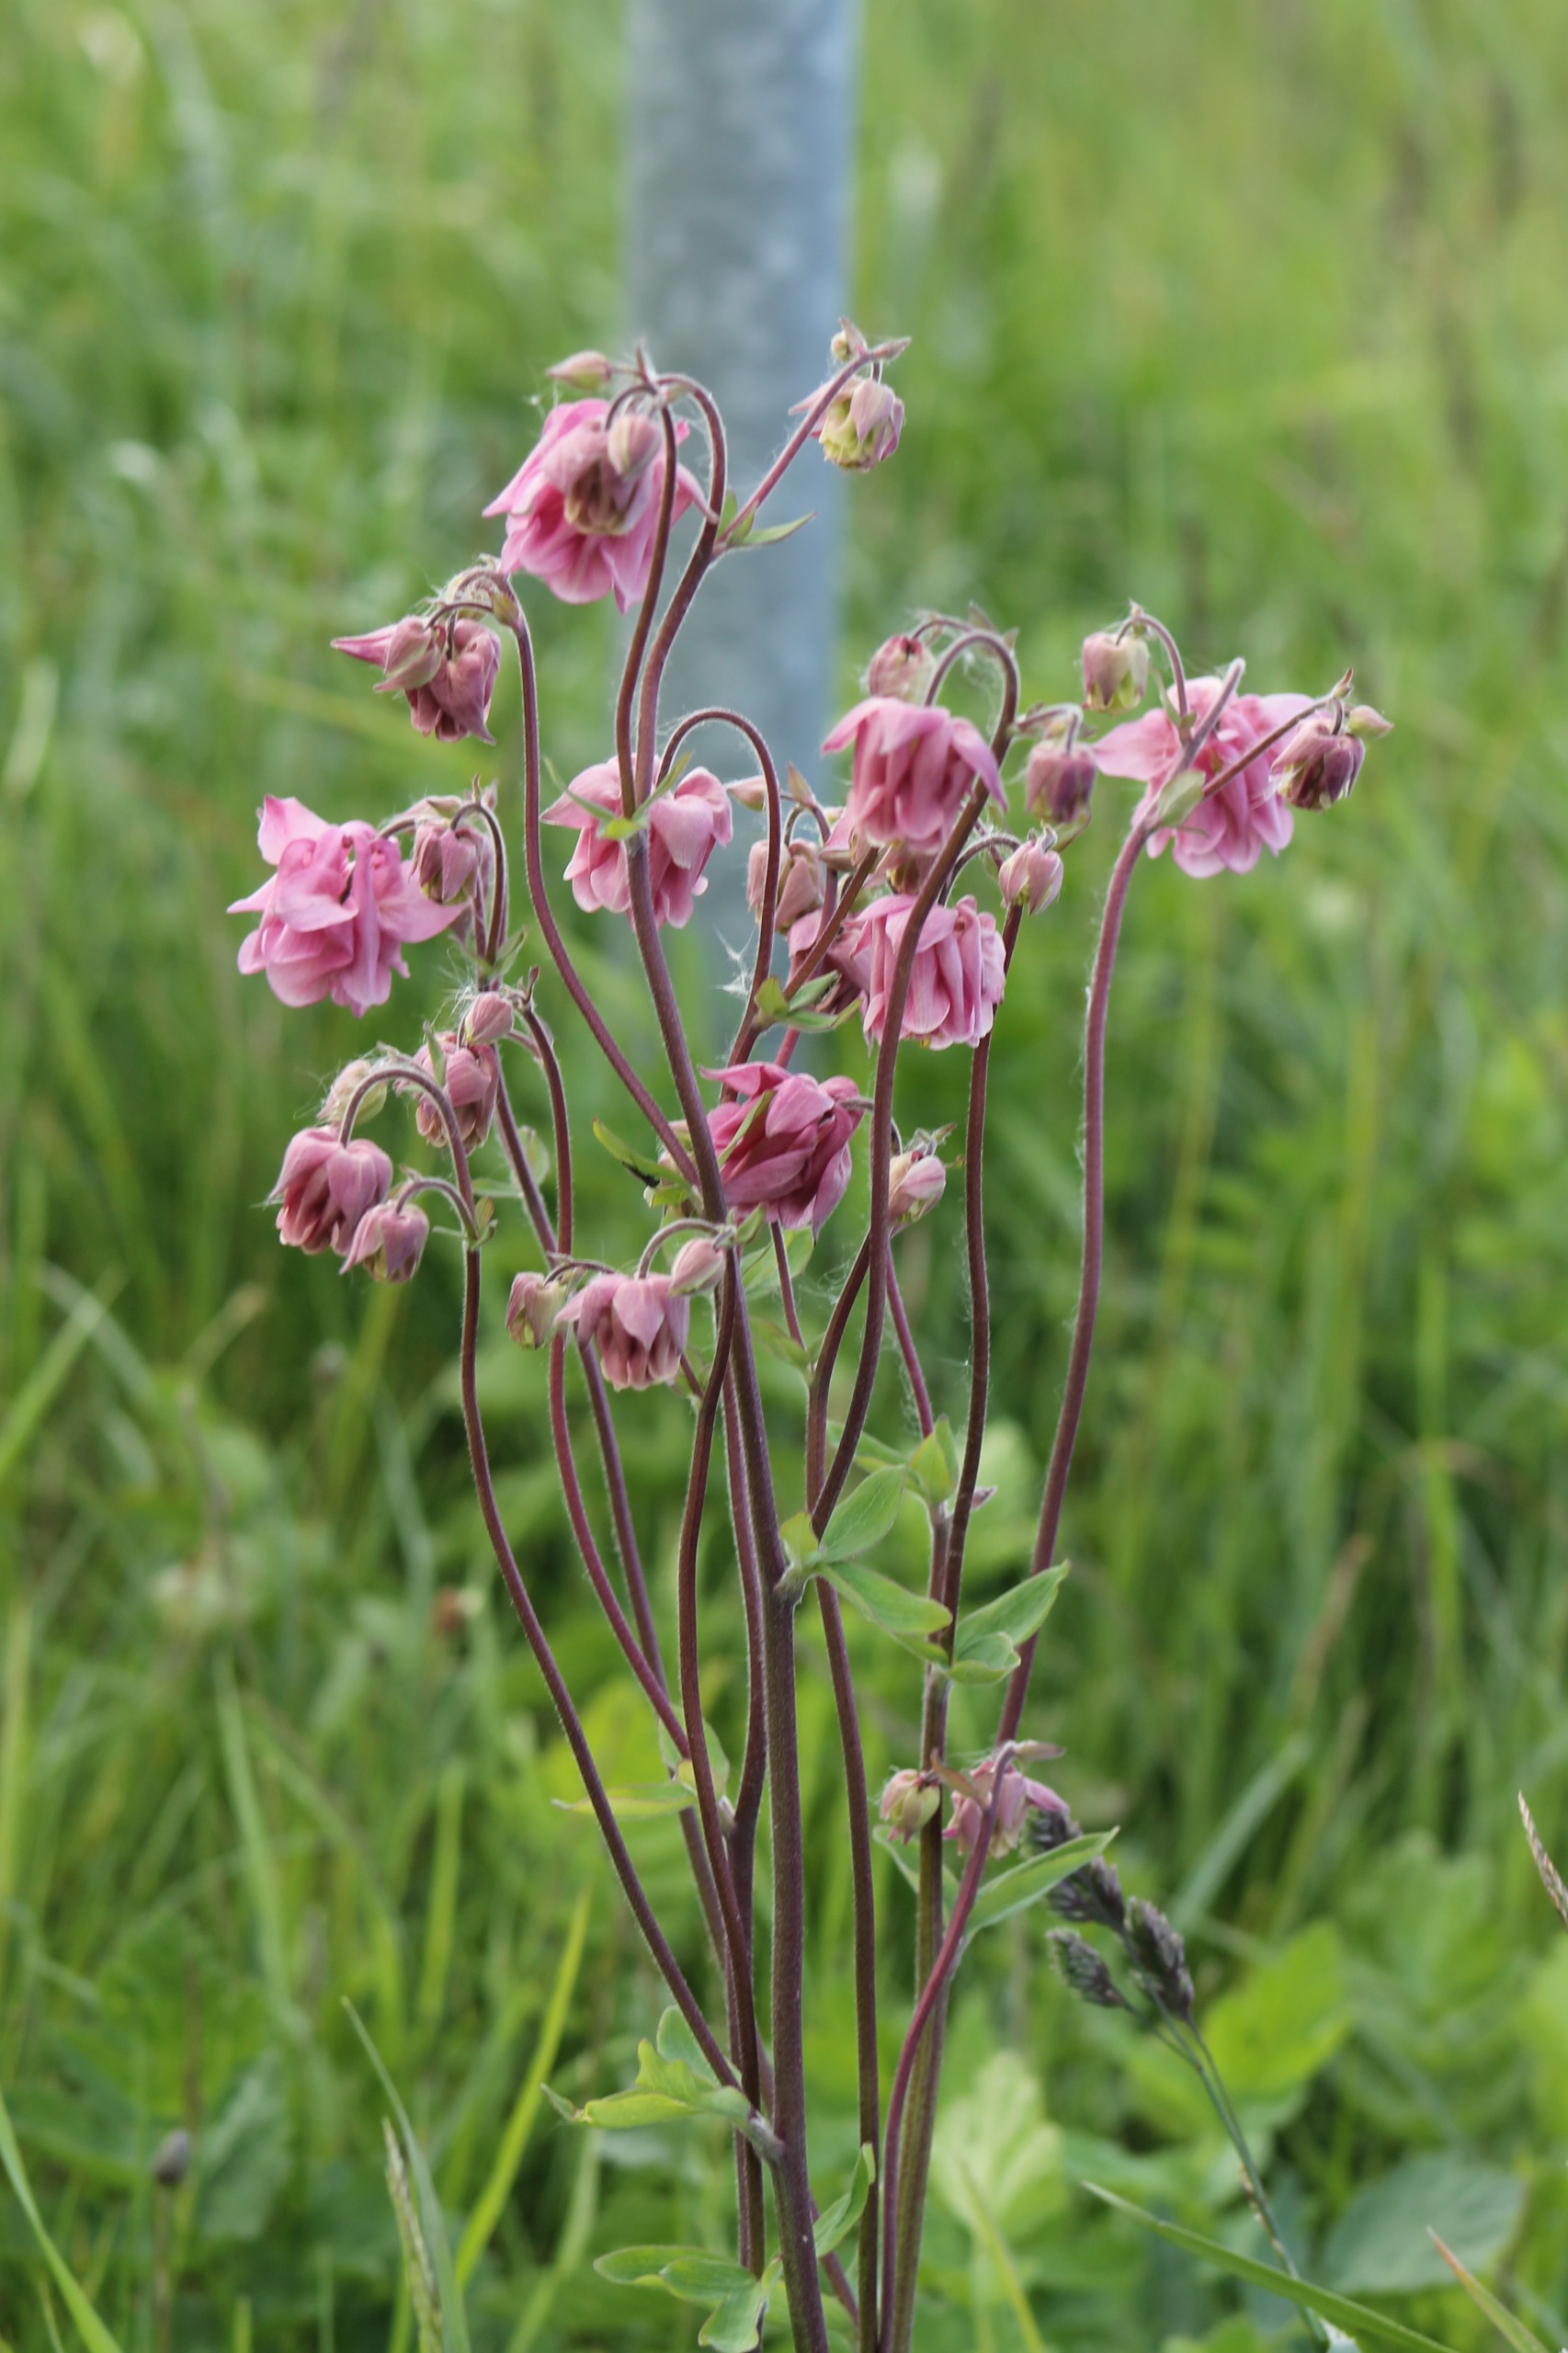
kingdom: Plantae
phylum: Tracheophyta
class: Magnoliopsida
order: Ranunculales
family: Ranunculaceae
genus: Aquilegia
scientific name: Aquilegia vulgaris
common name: Akeleje
